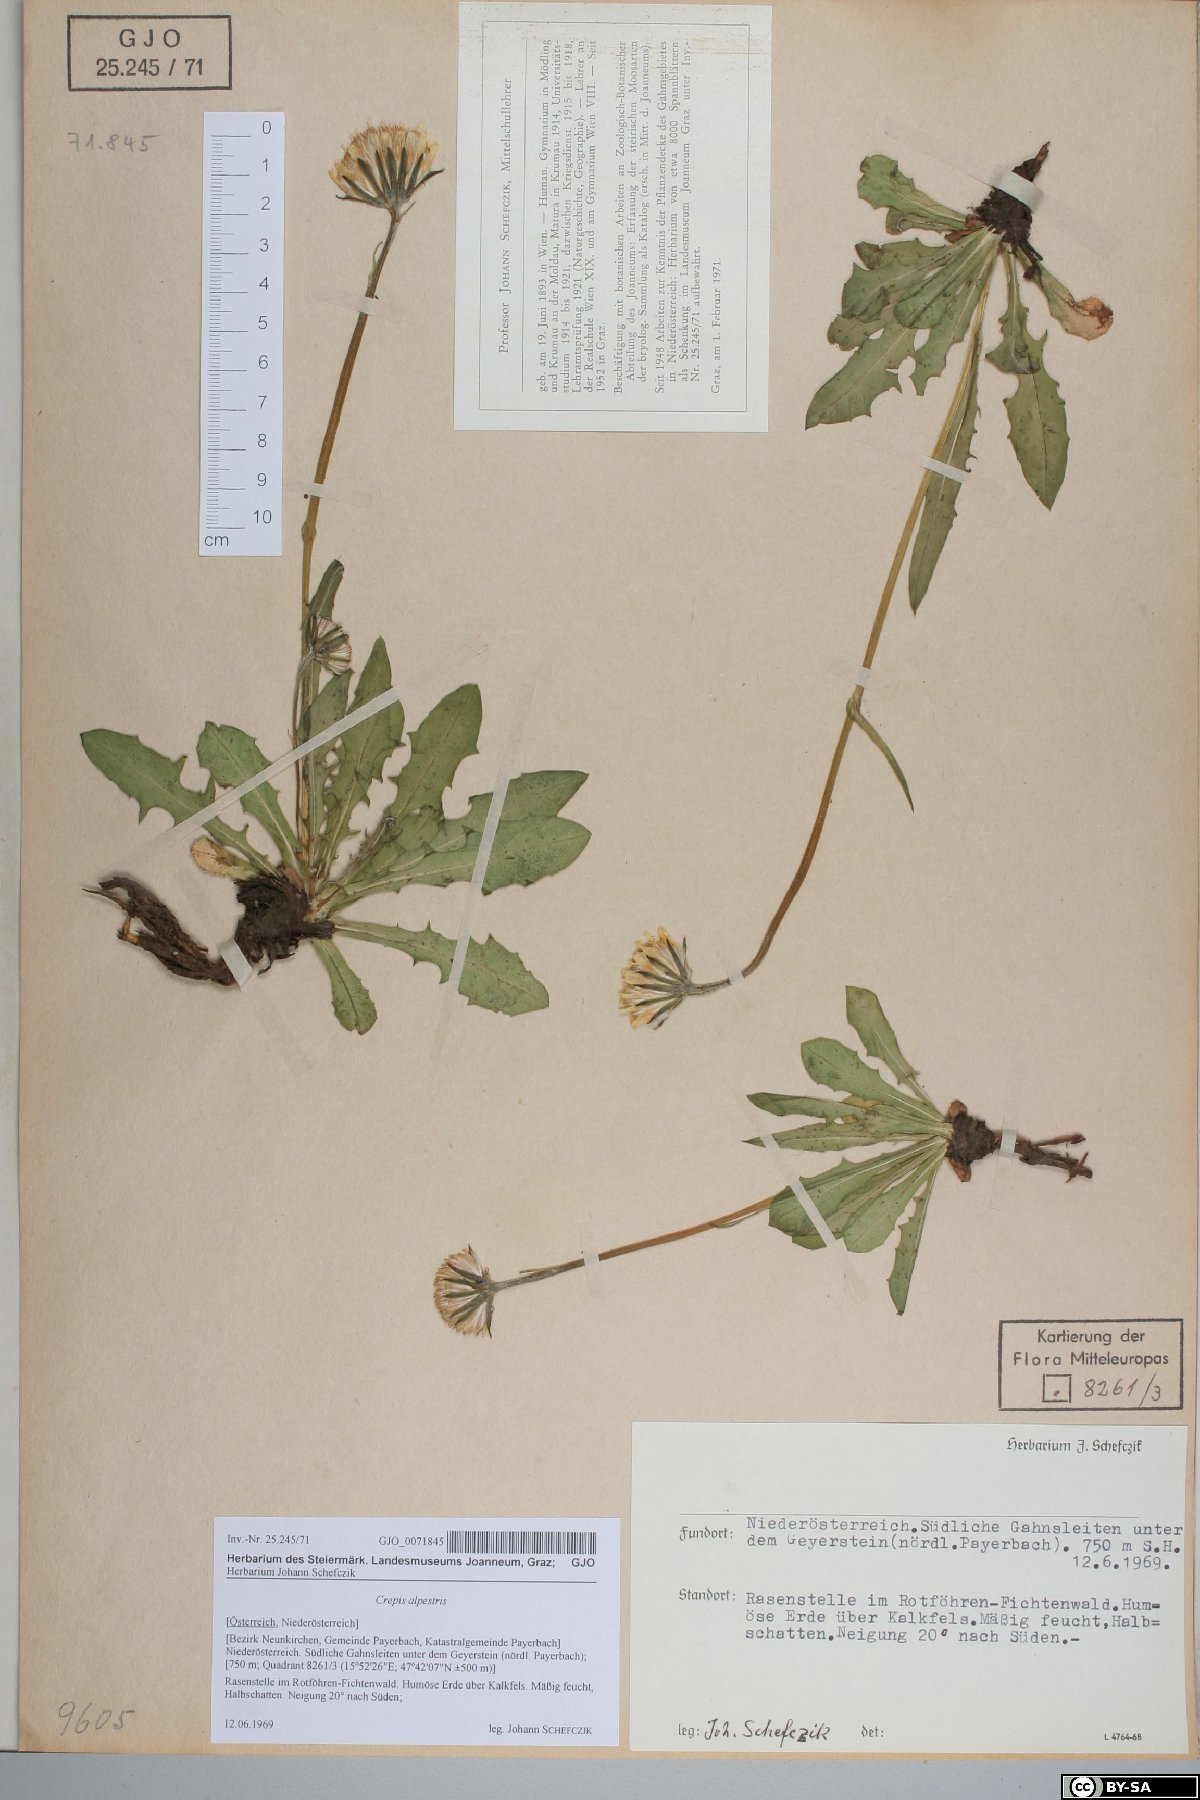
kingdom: Plantae
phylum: Tracheophyta
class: Magnoliopsida
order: Asterales
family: Asteraceae
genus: Crepis
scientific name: Crepis alpestris
